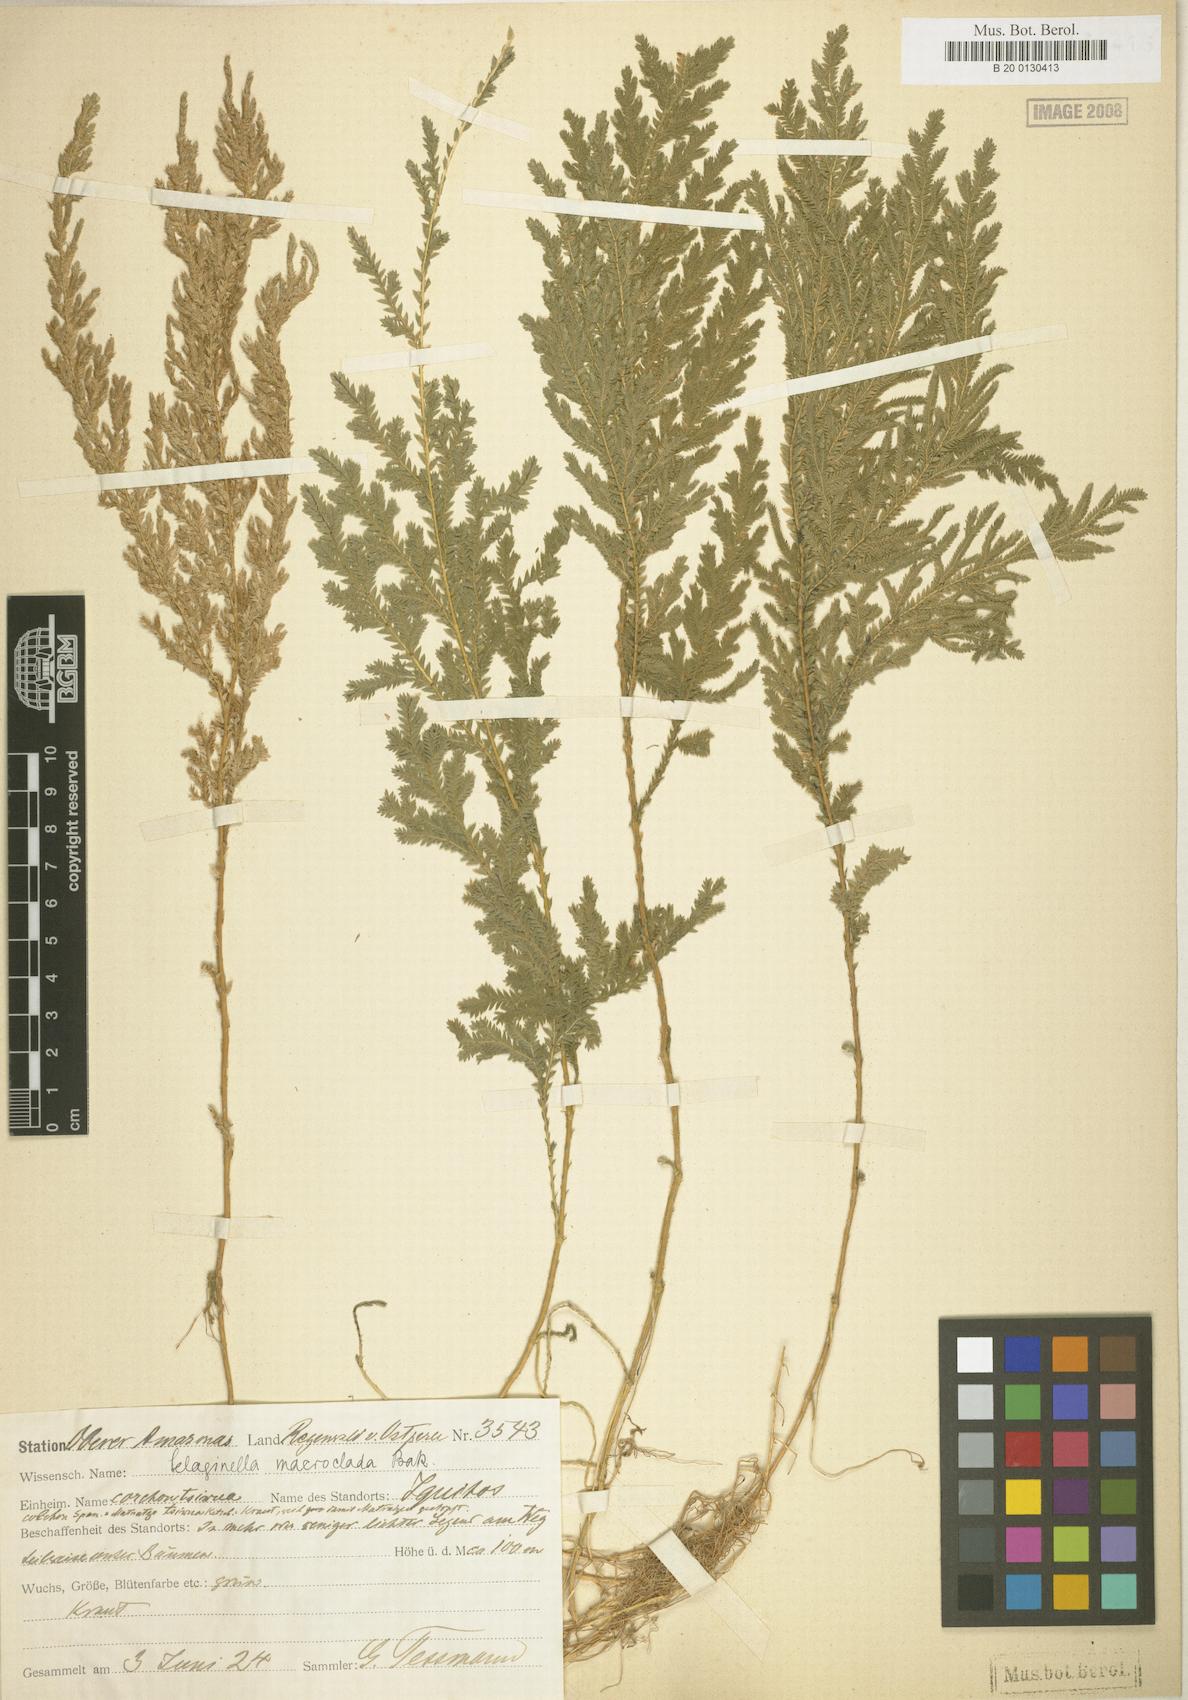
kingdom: Plantae
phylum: Tracheophyta
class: Lycopodiopsida
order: Selaginellales
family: Selaginellaceae
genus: Selaginella
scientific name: Selaginella parkeri
